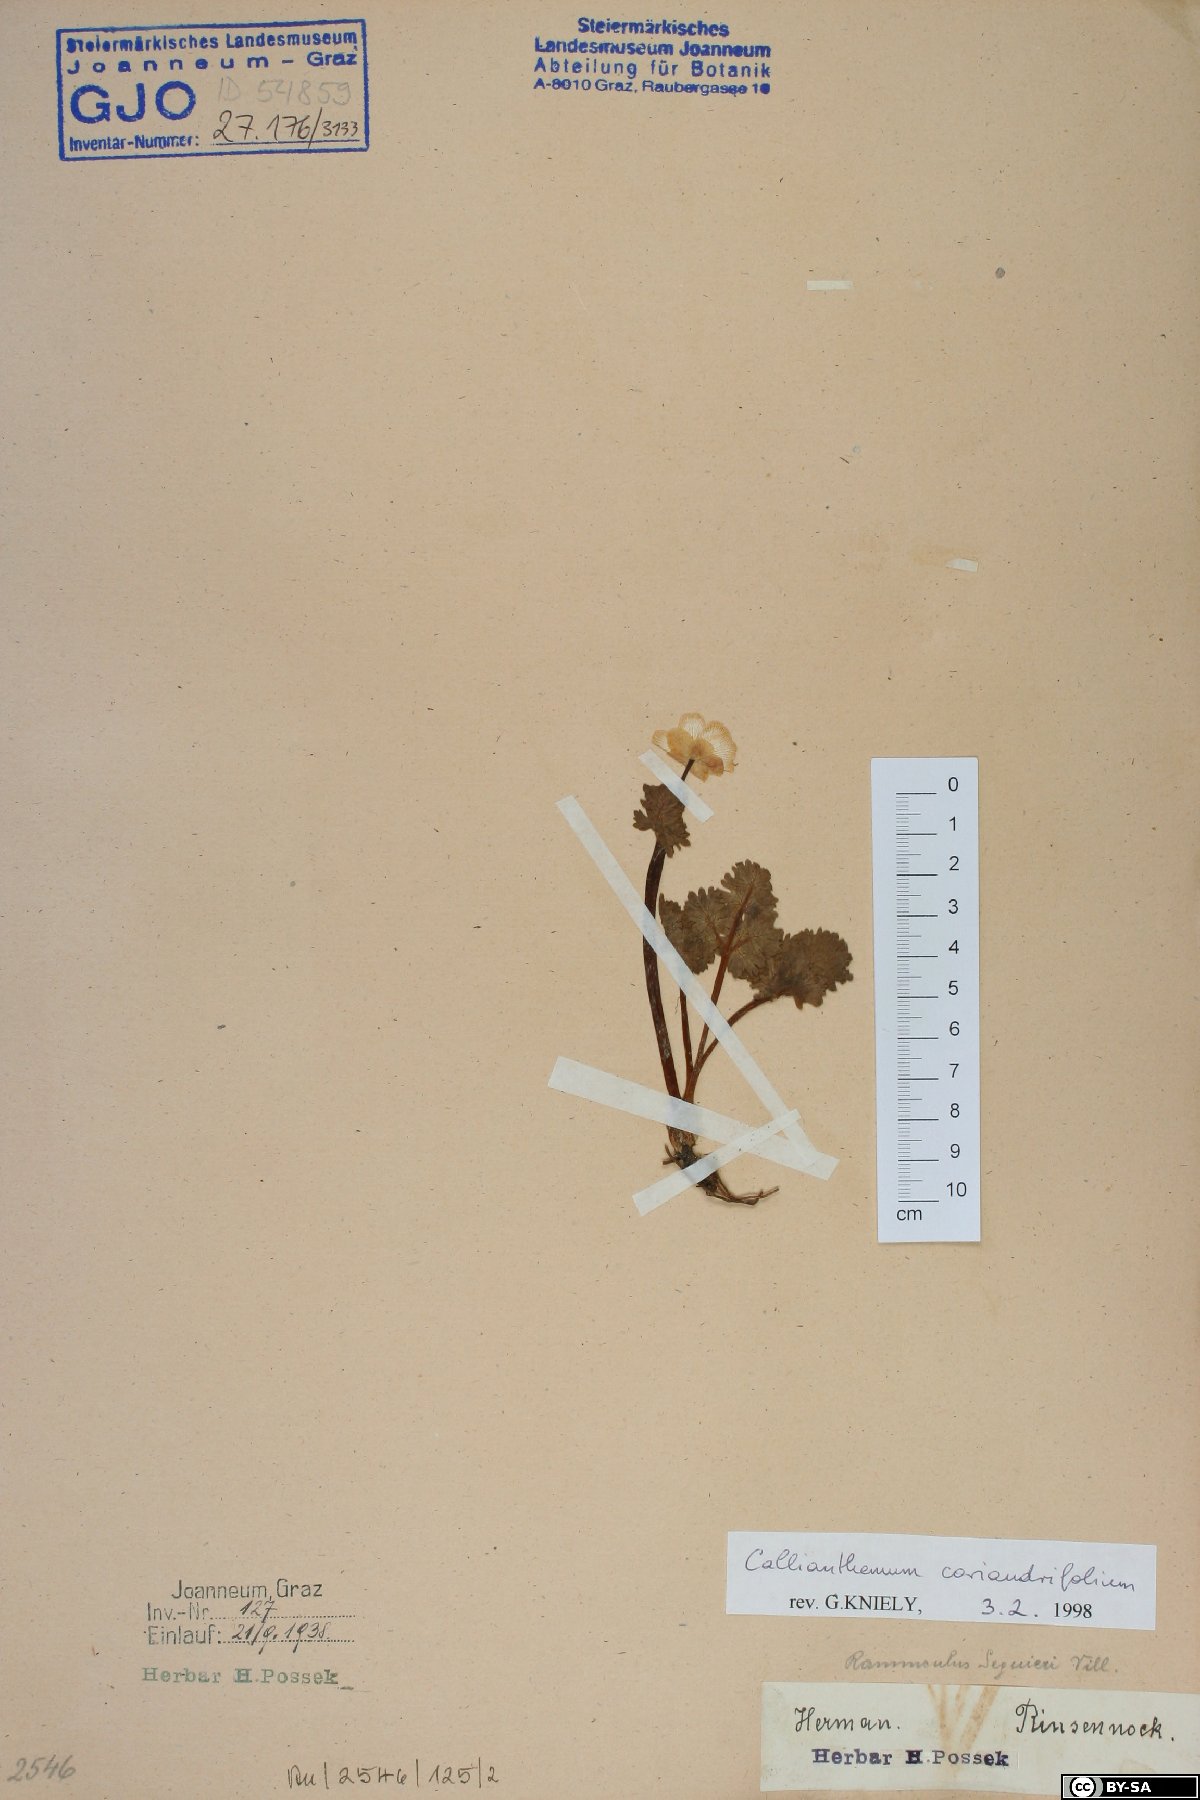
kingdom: Plantae
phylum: Tracheophyta
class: Magnoliopsida
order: Ranunculales
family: Ranunculaceae
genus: Callianthemum
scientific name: Callianthemum coriandrifolium
